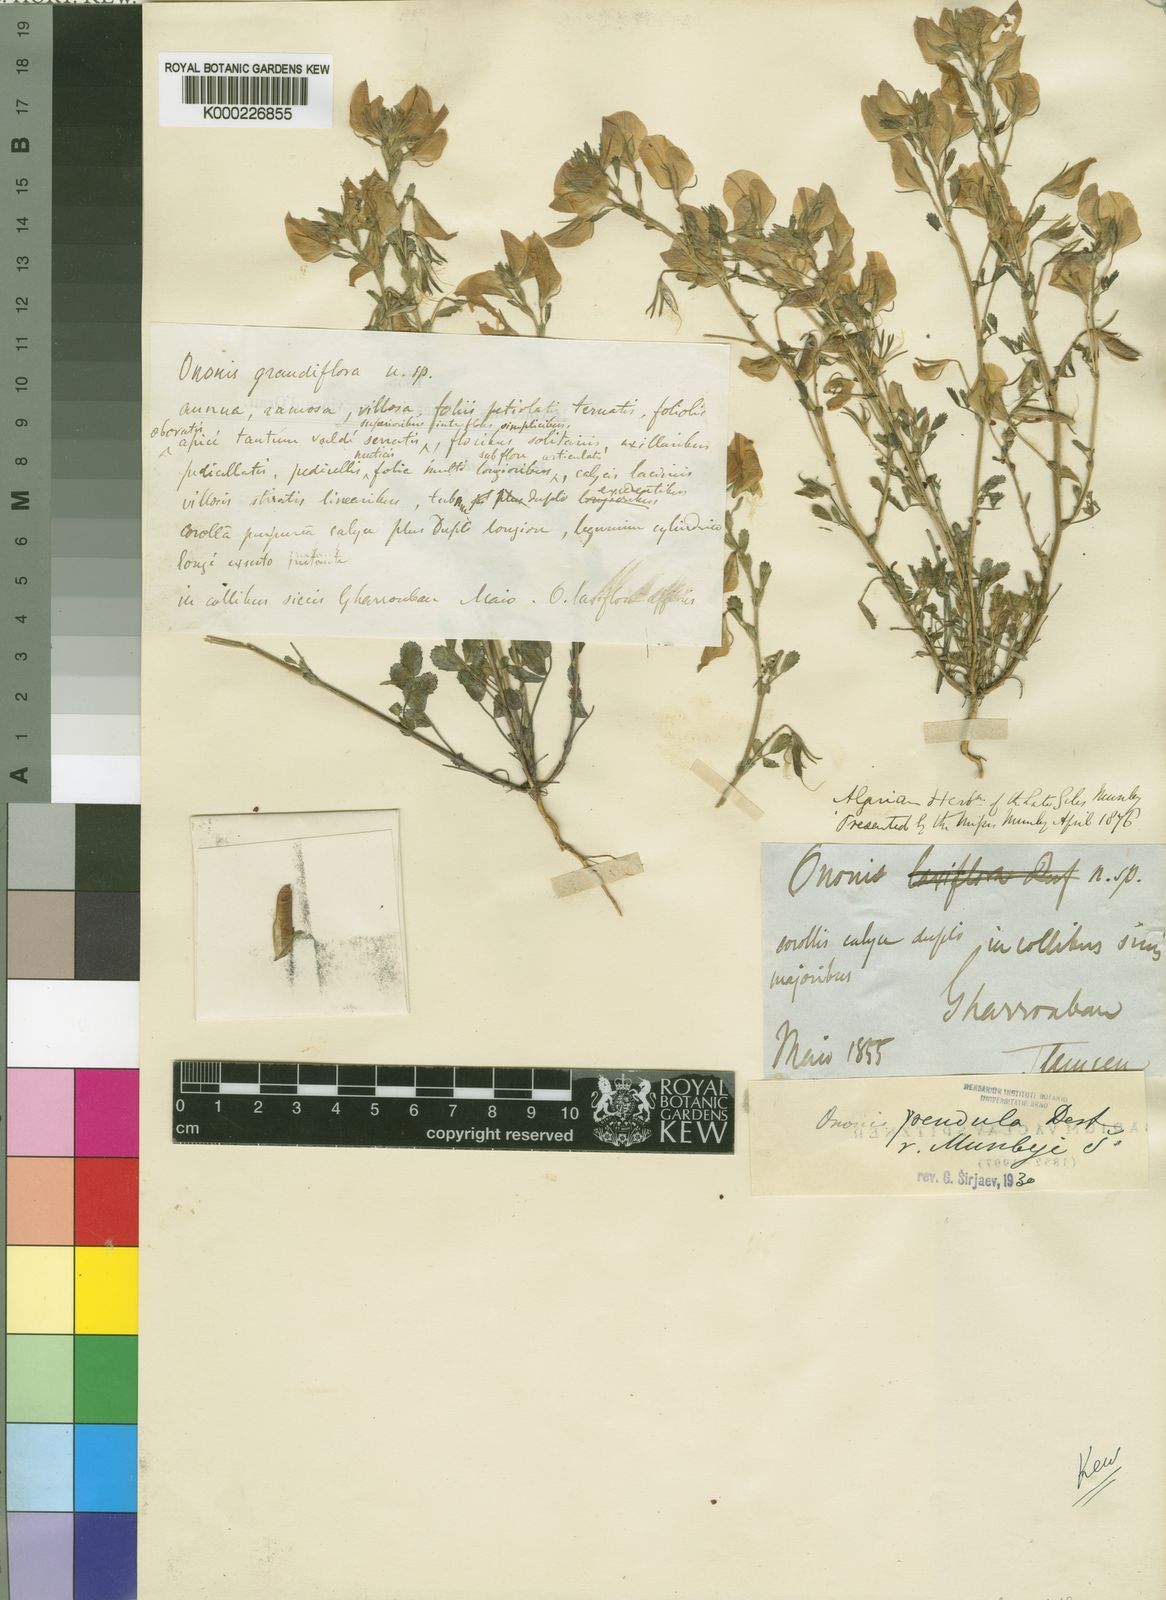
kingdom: Plantae
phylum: Tracheophyta
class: Magnoliopsida
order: Fabales
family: Fabaceae
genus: Ononis
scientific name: Ononis pendula
